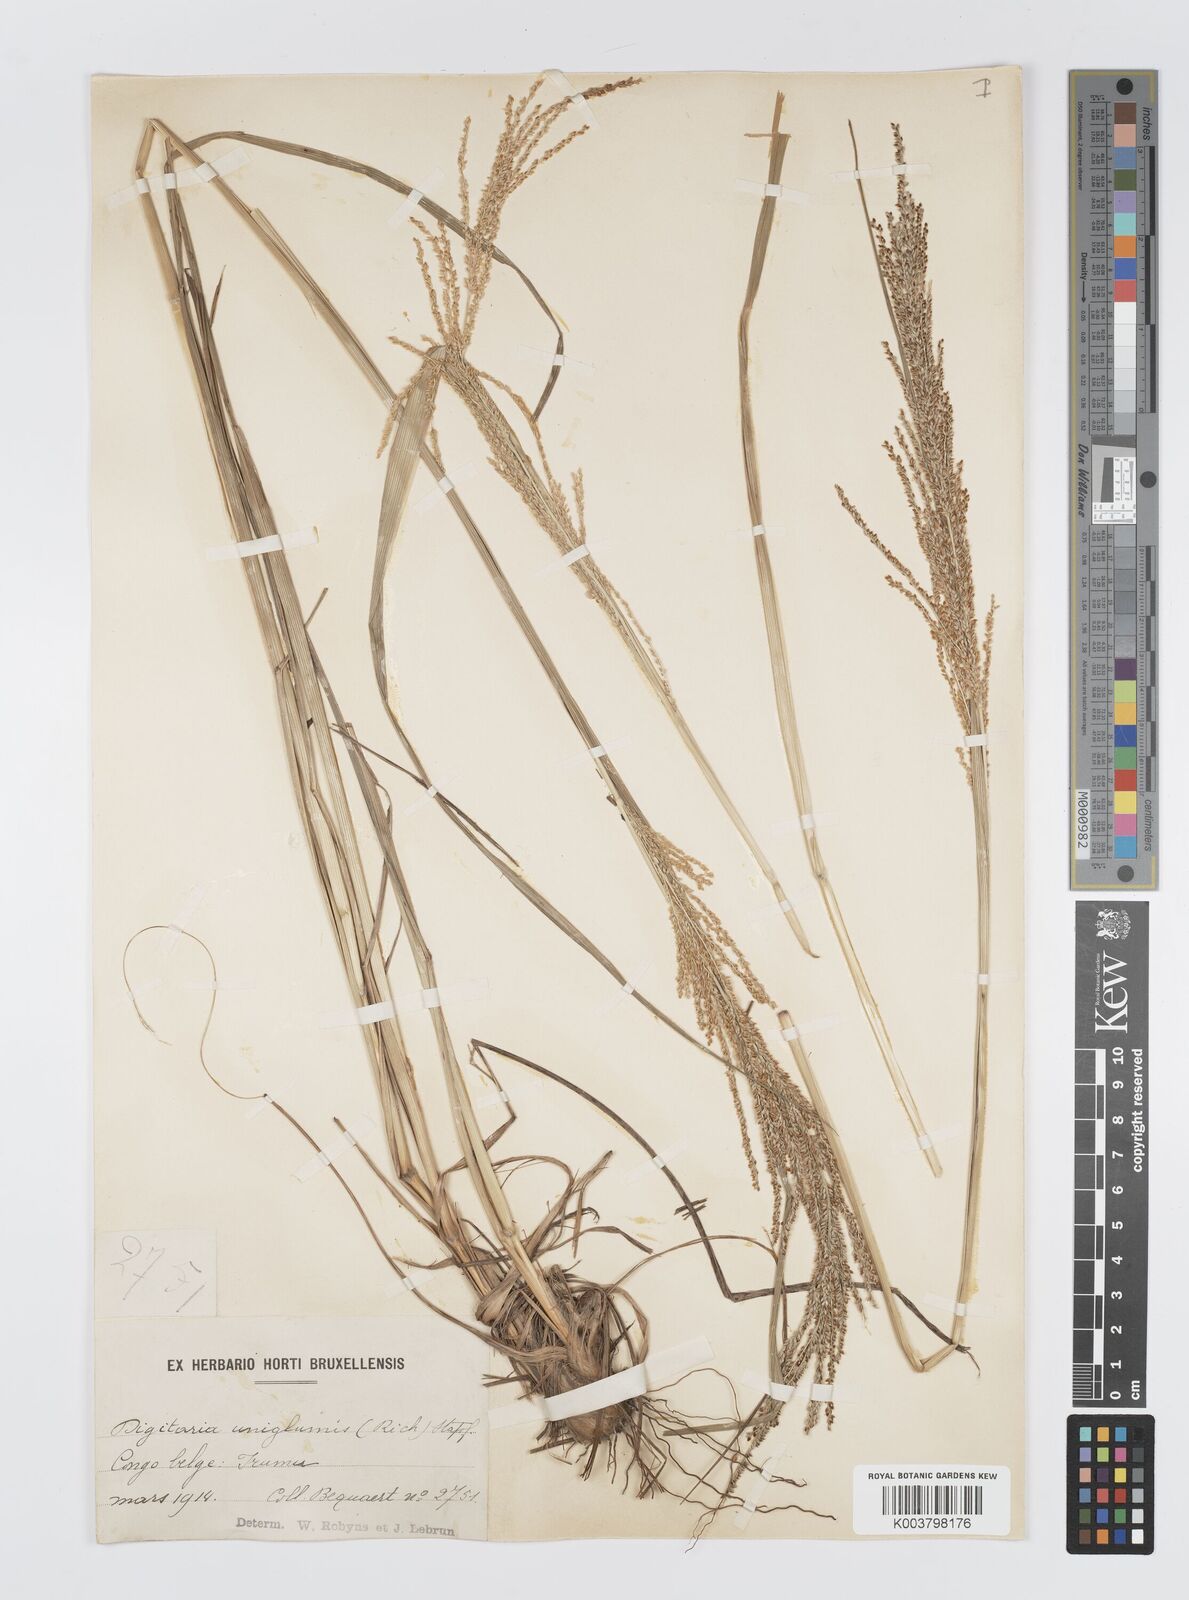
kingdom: Plantae
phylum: Tracheophyta
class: Liliopsida
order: Poales
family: Poaceae
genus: Digitaria
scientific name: Digitaria diagonalis
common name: Brown-seed finger grass
